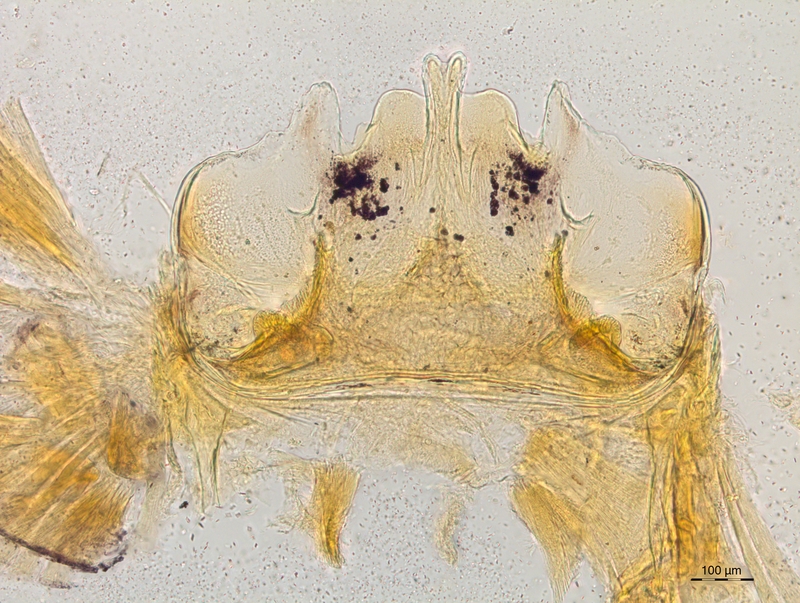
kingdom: Animalia
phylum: Arthropoda
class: Diplopoda
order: Chordeumatida
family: Craspedosomatidae
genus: Craspedosoma
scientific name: Craspedosoma taurinorum
